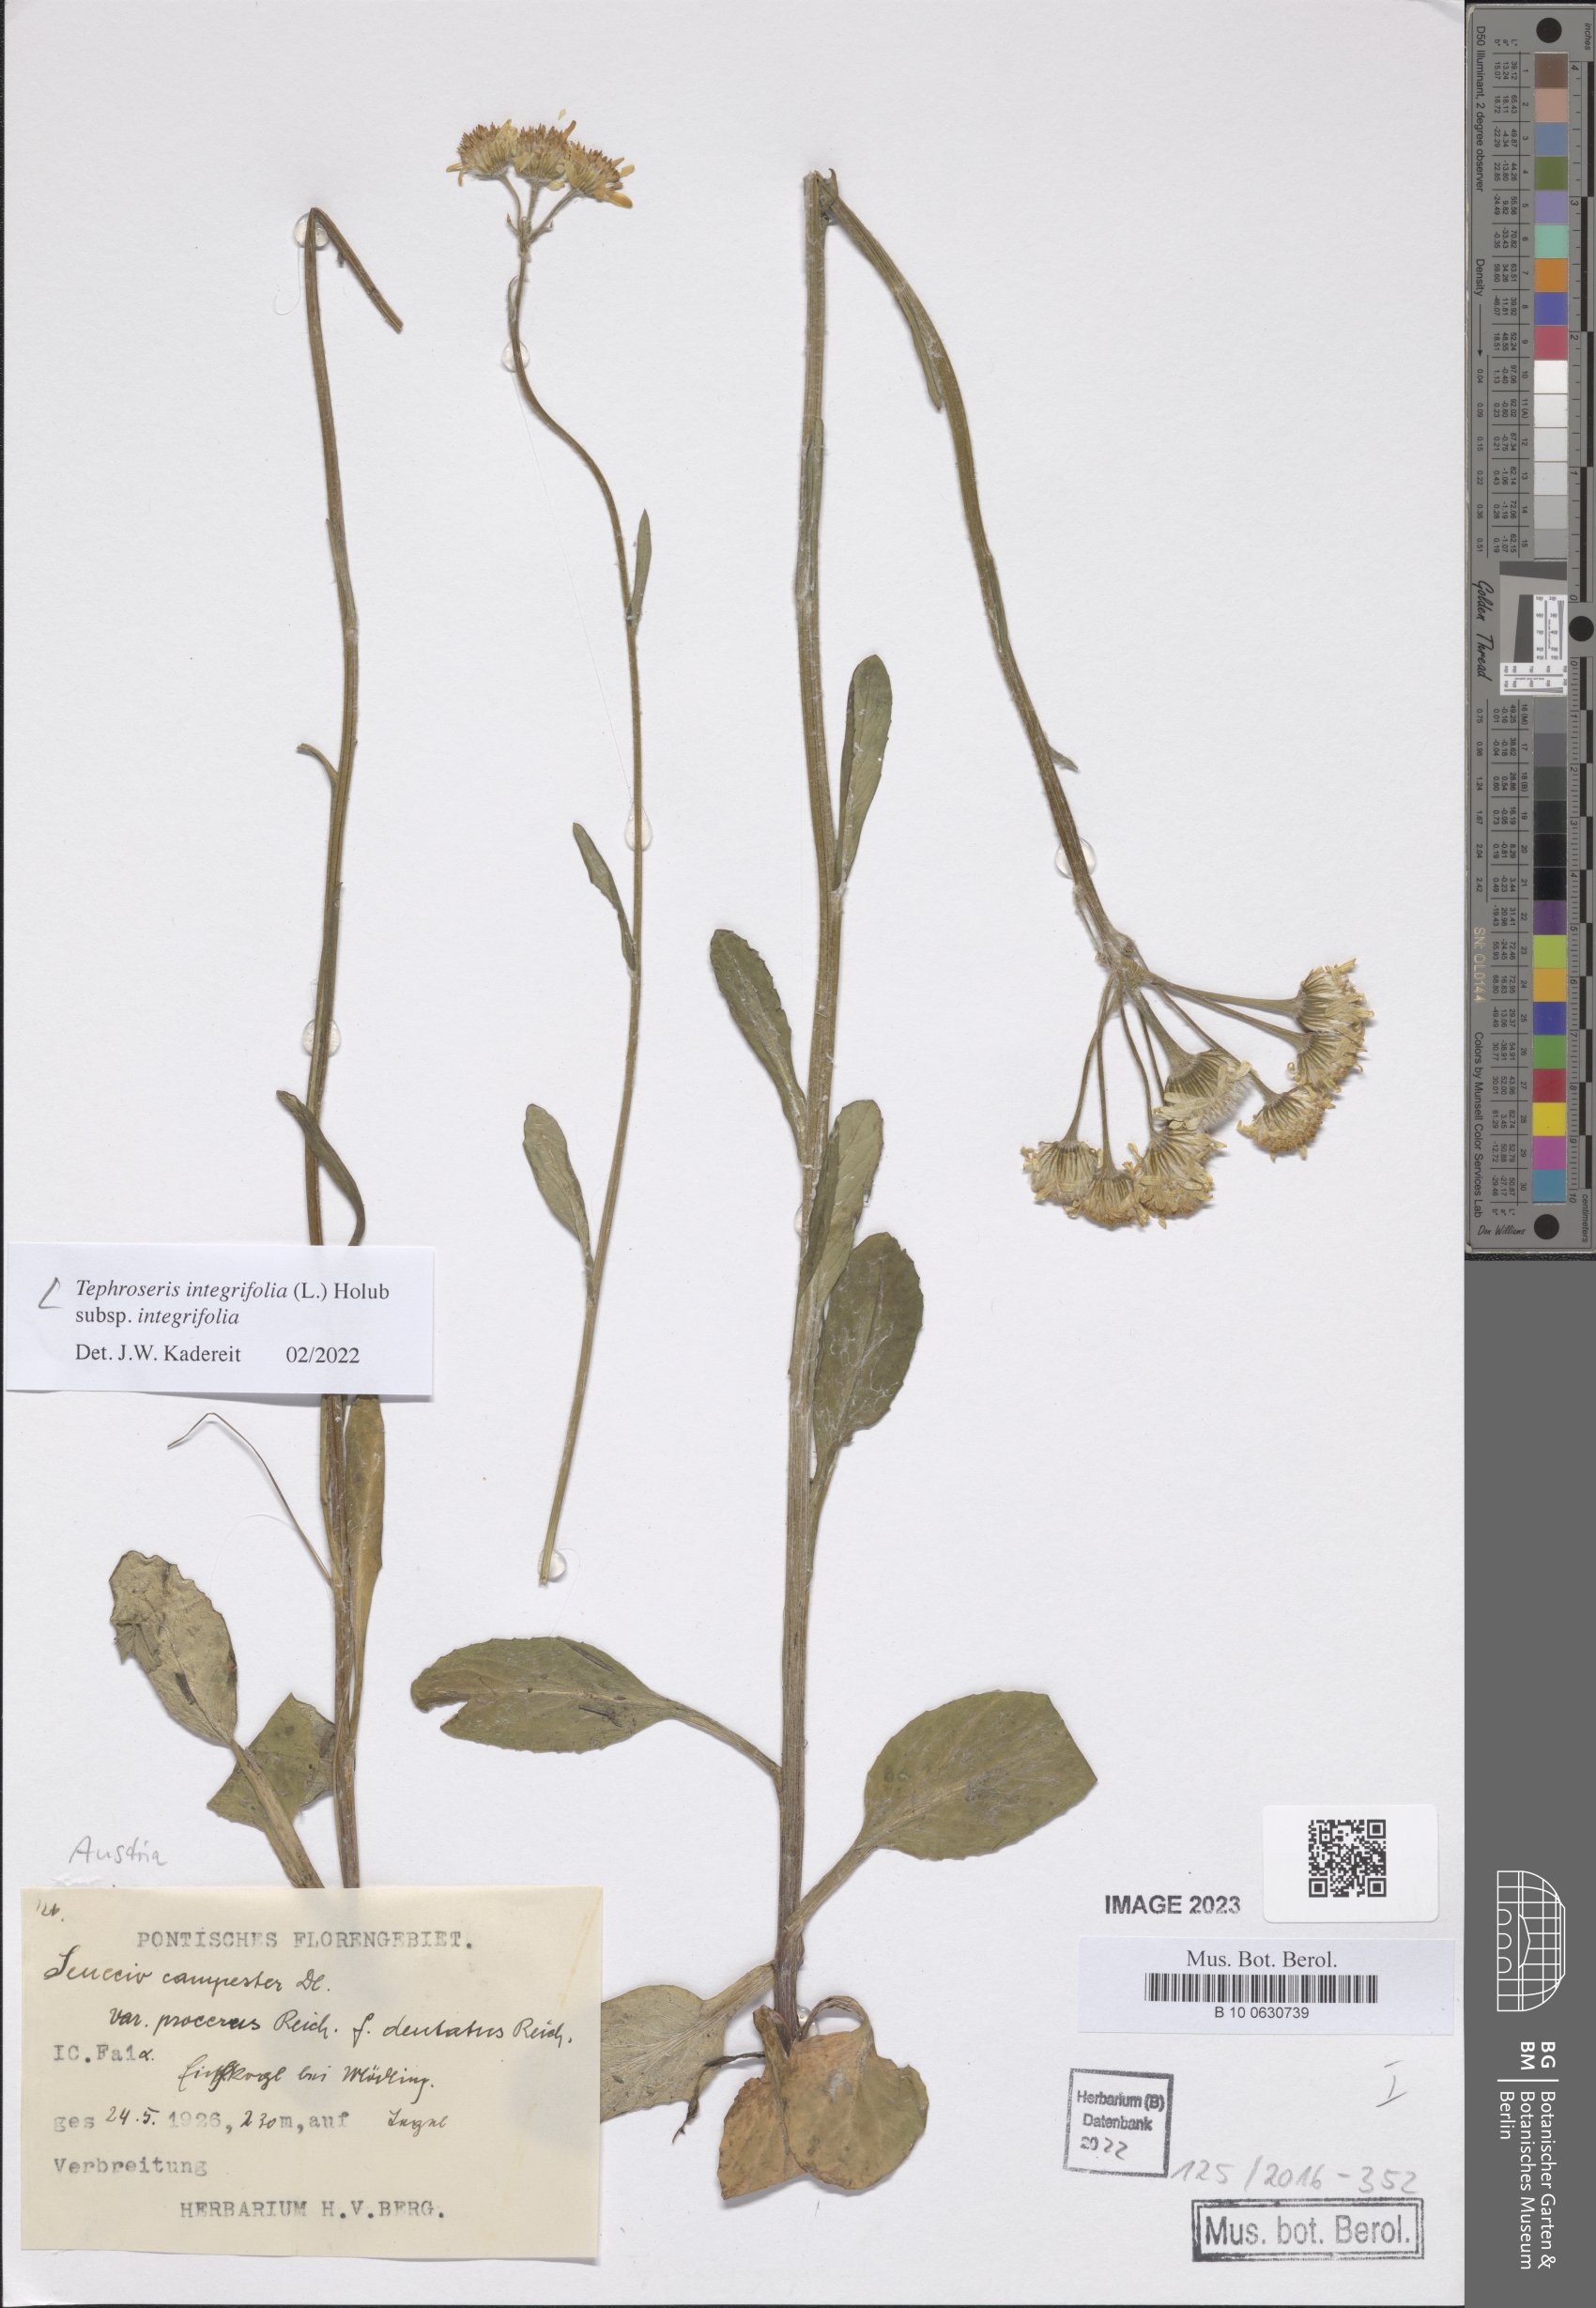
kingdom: Plantae
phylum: Tracheophyta
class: Magnoliopsida
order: Asterales
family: Asteraceae
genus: Tephroseris
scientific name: Tephroseris integrifolia
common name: Field fleawort
